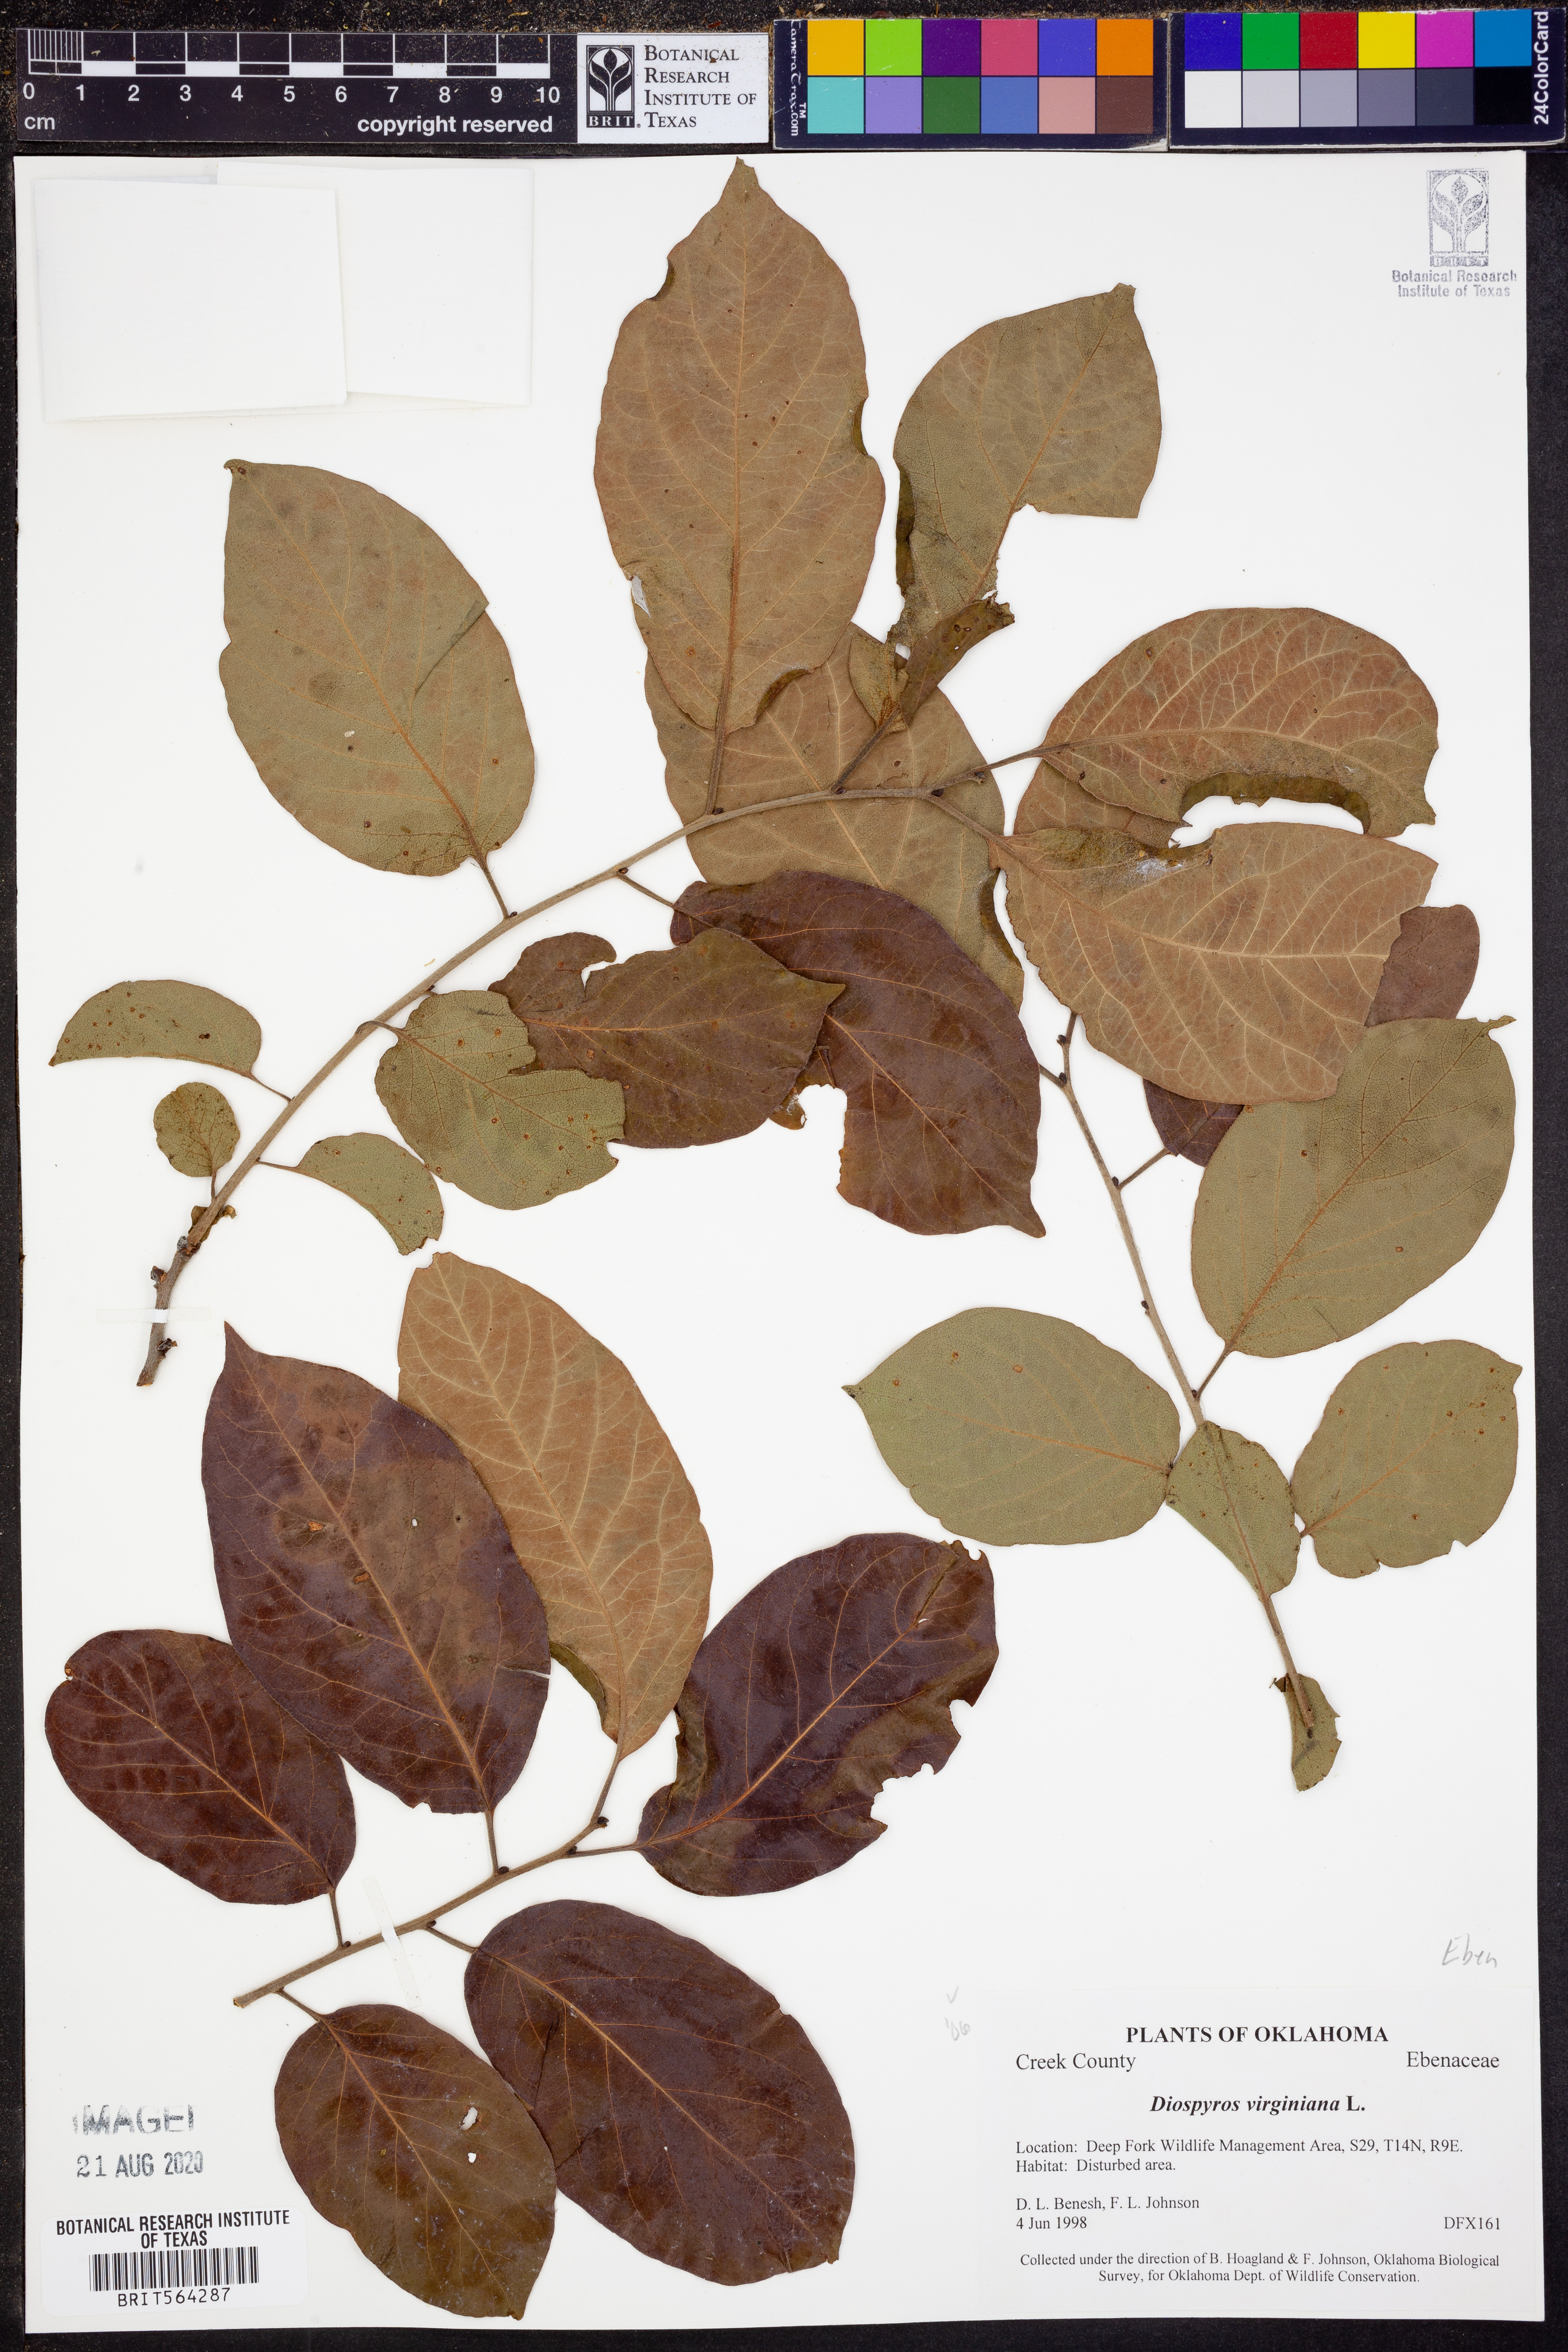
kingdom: Plantae
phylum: Tracheophyta
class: Magnoliopsida
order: Ericales
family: Ebenaceae
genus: Diospyros
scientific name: Diospyros virginiana
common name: Persimmon
